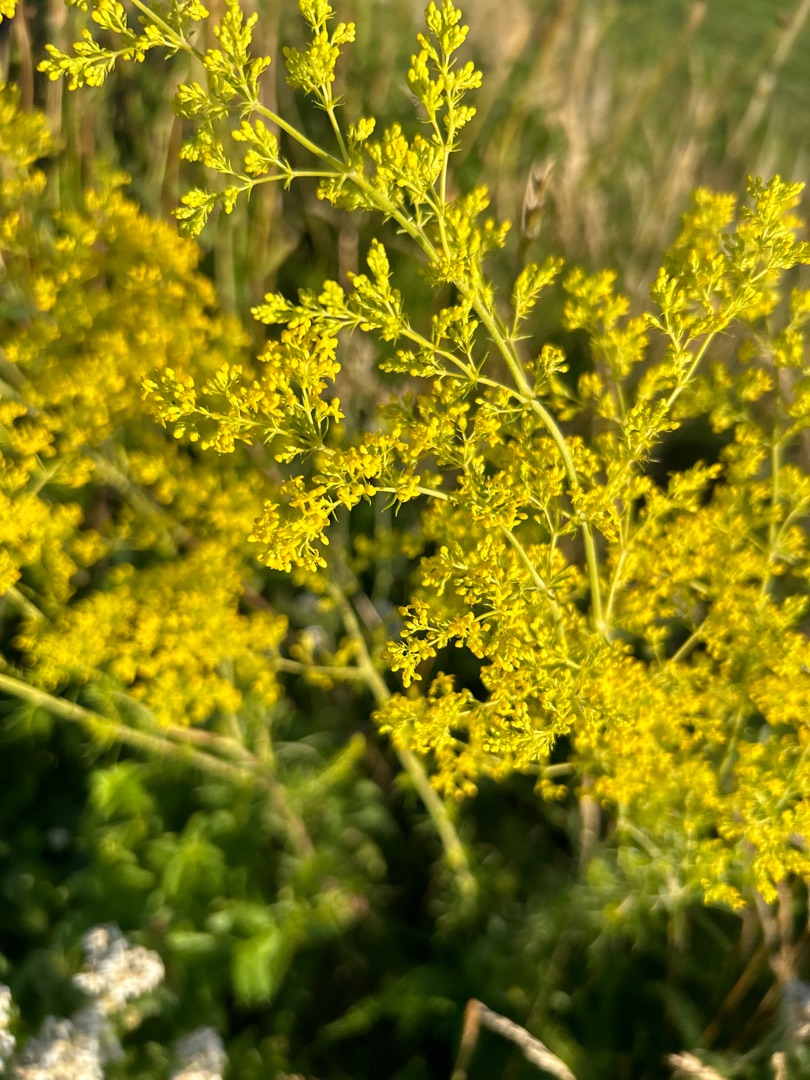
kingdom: Plantae
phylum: Tracheophyta
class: Magnoliopsida
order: Gentianales
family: Rubiaceae
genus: Galium
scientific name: Galium verum
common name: Gul snerre
